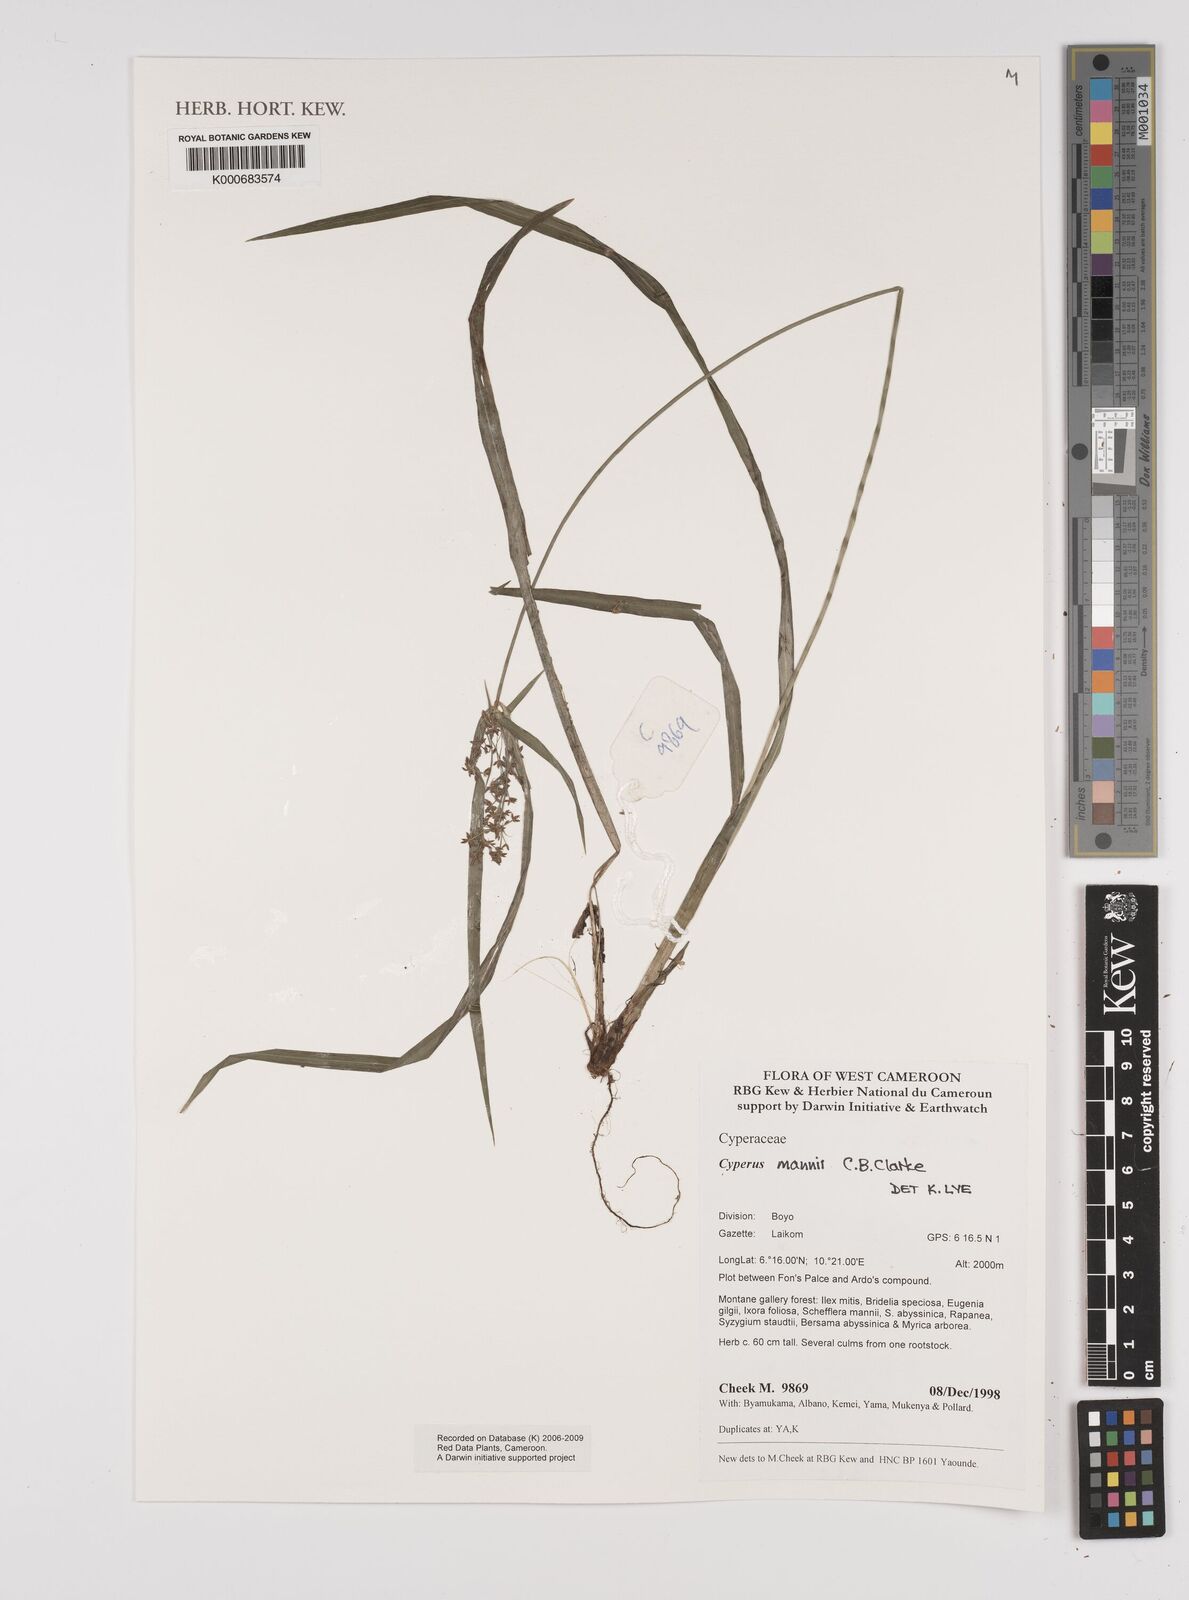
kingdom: Plantae
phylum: Tracheophyta
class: Liliopsida
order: Poales
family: Cyperaceae
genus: Cyperus
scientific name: Cyperus baronii
